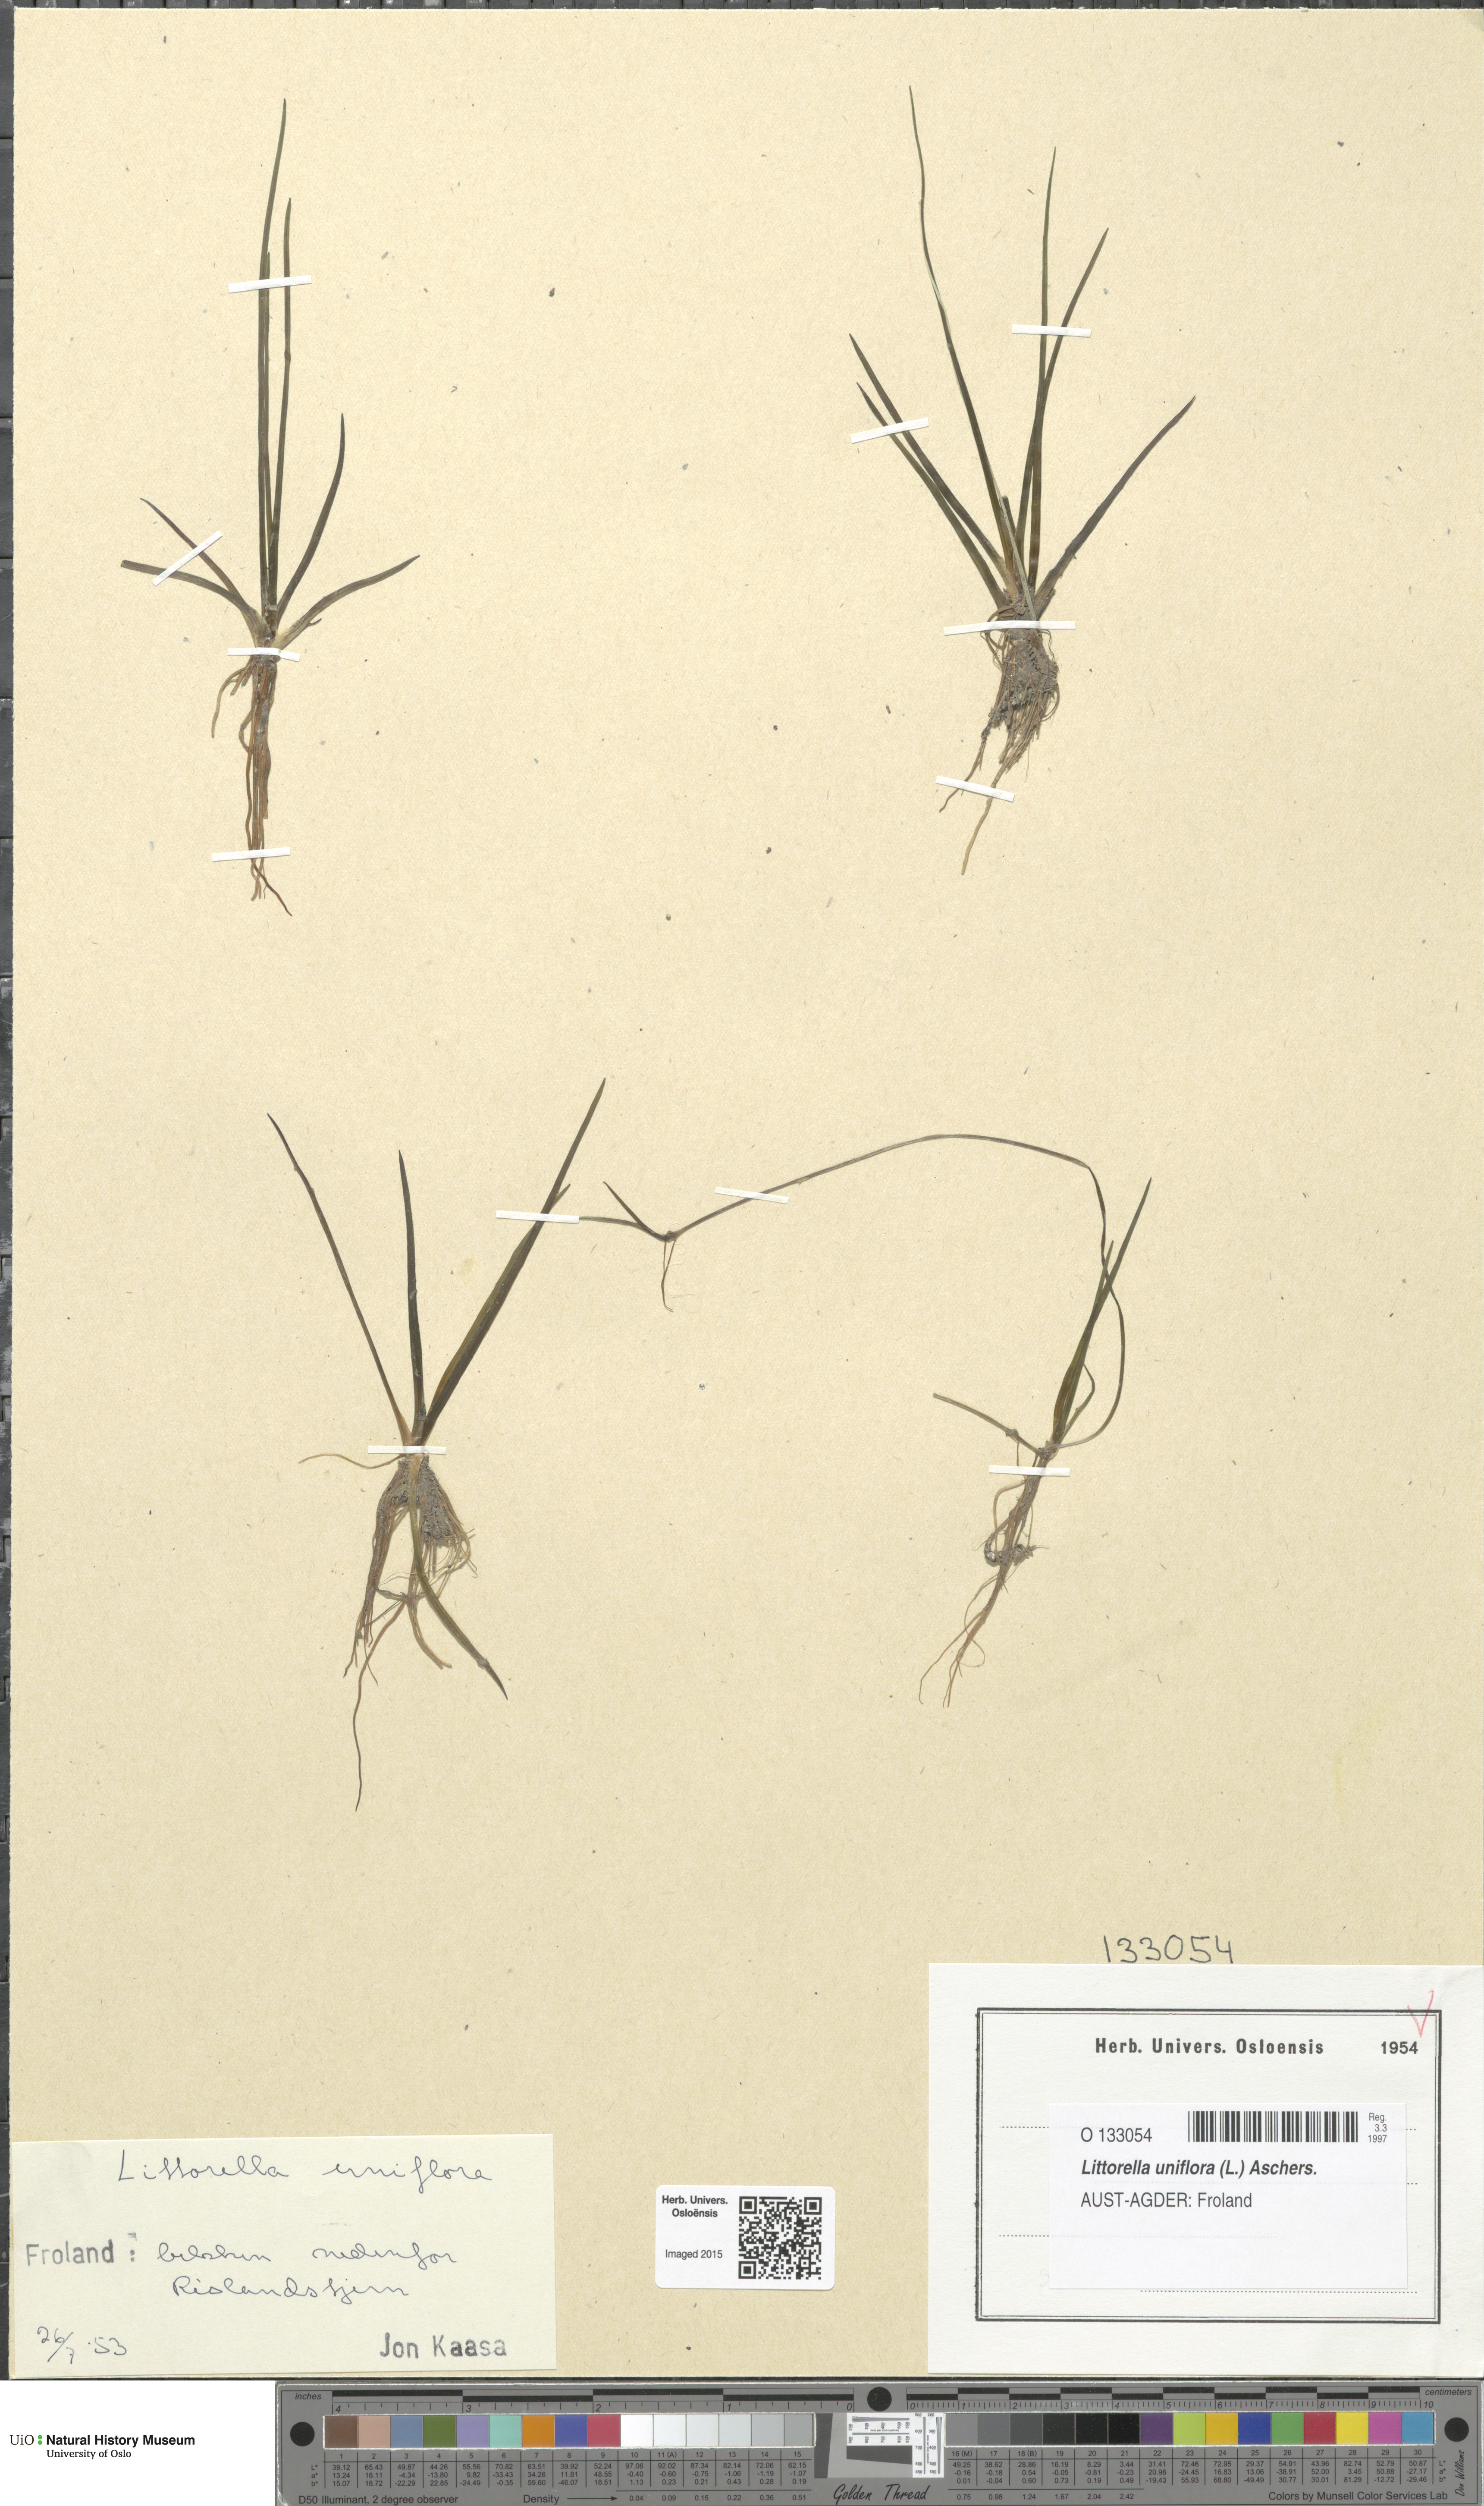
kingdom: Plantae
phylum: Tracheophyta
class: Magnoliopsida
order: Lamiales
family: Plantaginaceae
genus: Littorella
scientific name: Littorella uniflora
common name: Shoreweed
